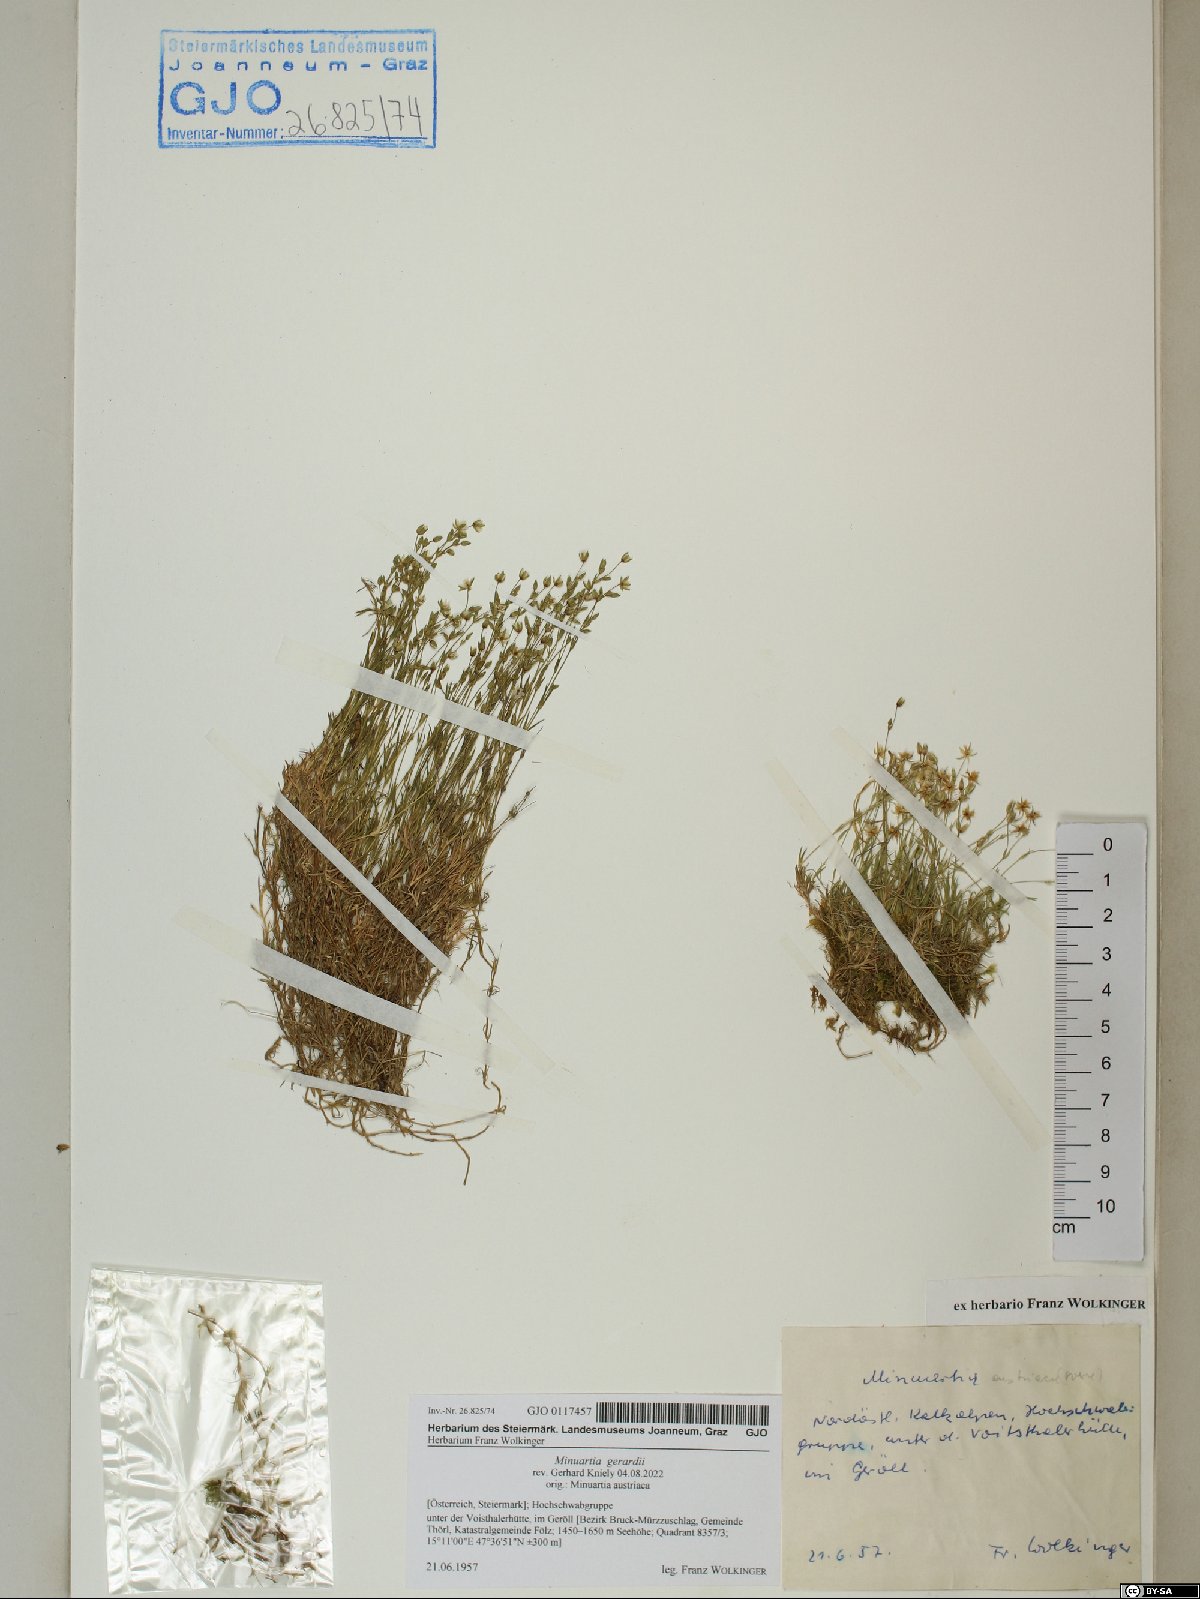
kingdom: Plantae
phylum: Tracheophyta
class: Magnoliopsida
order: Caryophyllales
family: Caryophyllaceae
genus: Sabulina
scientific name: Sabulina verna
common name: Spring sandwort
